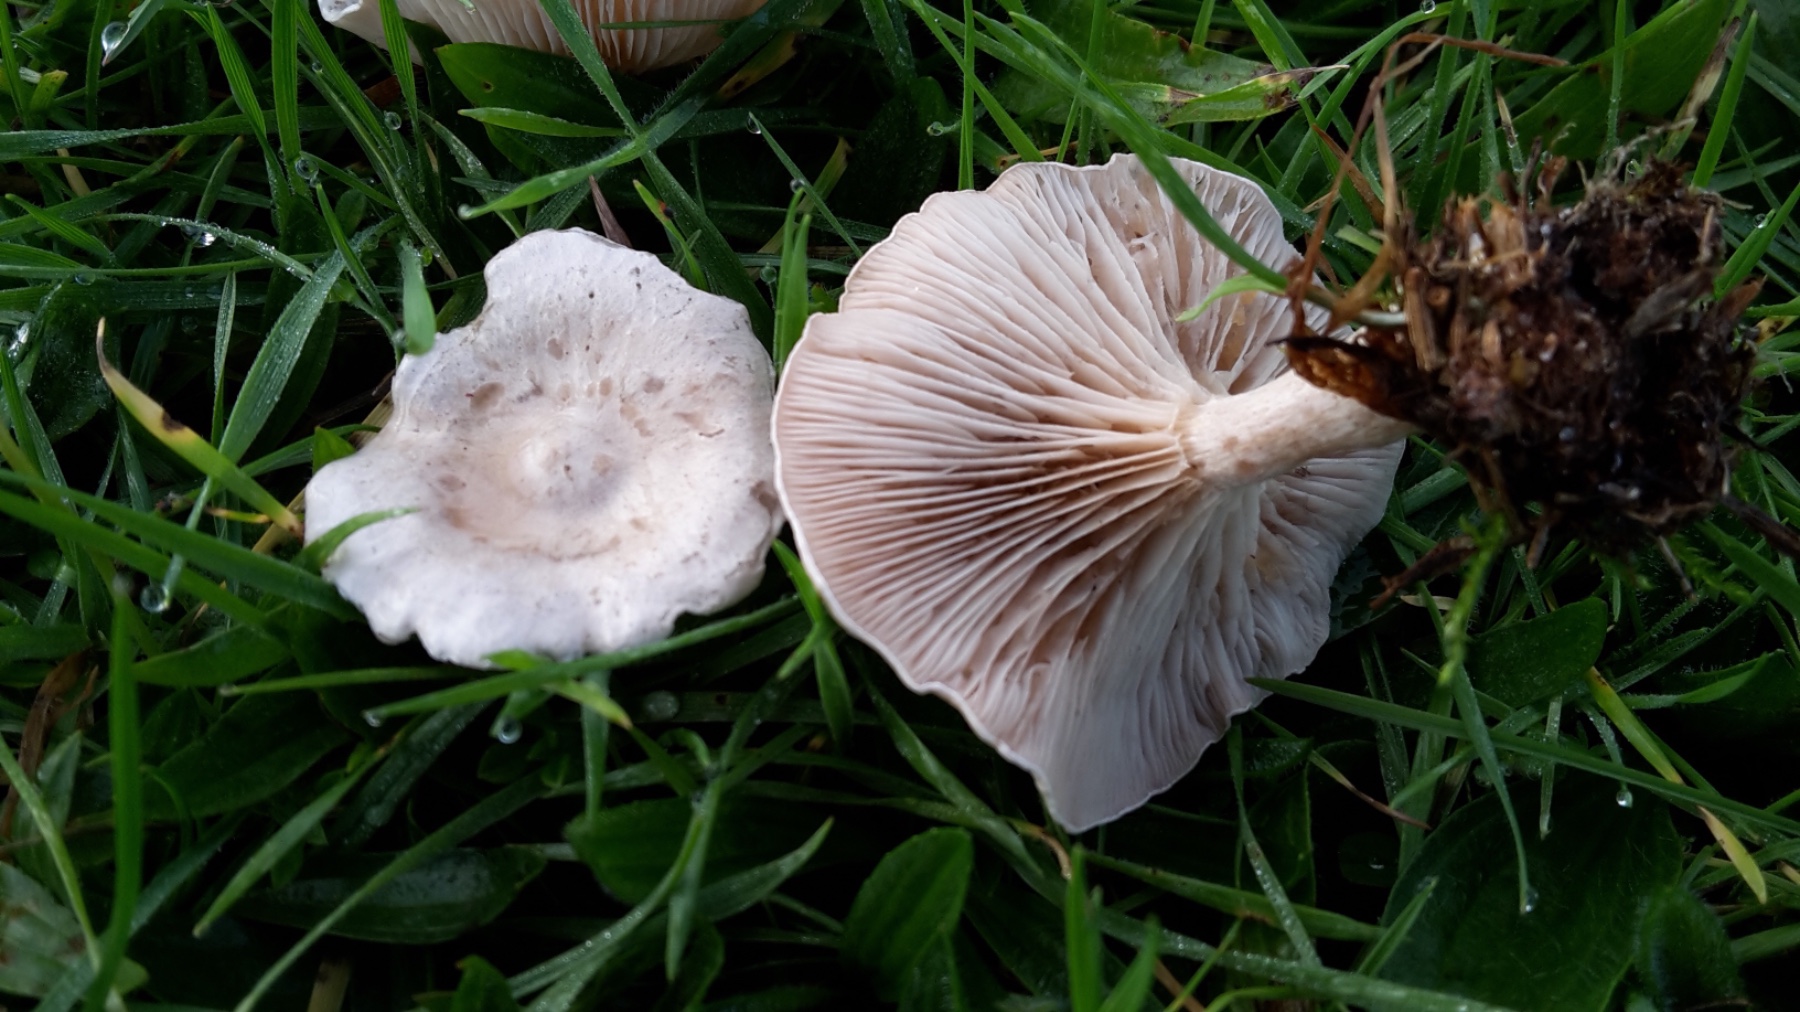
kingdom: Fungi
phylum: Basidiomycota
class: Agaricomycetes
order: Agaricales
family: Tricholomataceae
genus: Clitocybe
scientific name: Clitocybe rivulosa
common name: eng-tragthat
